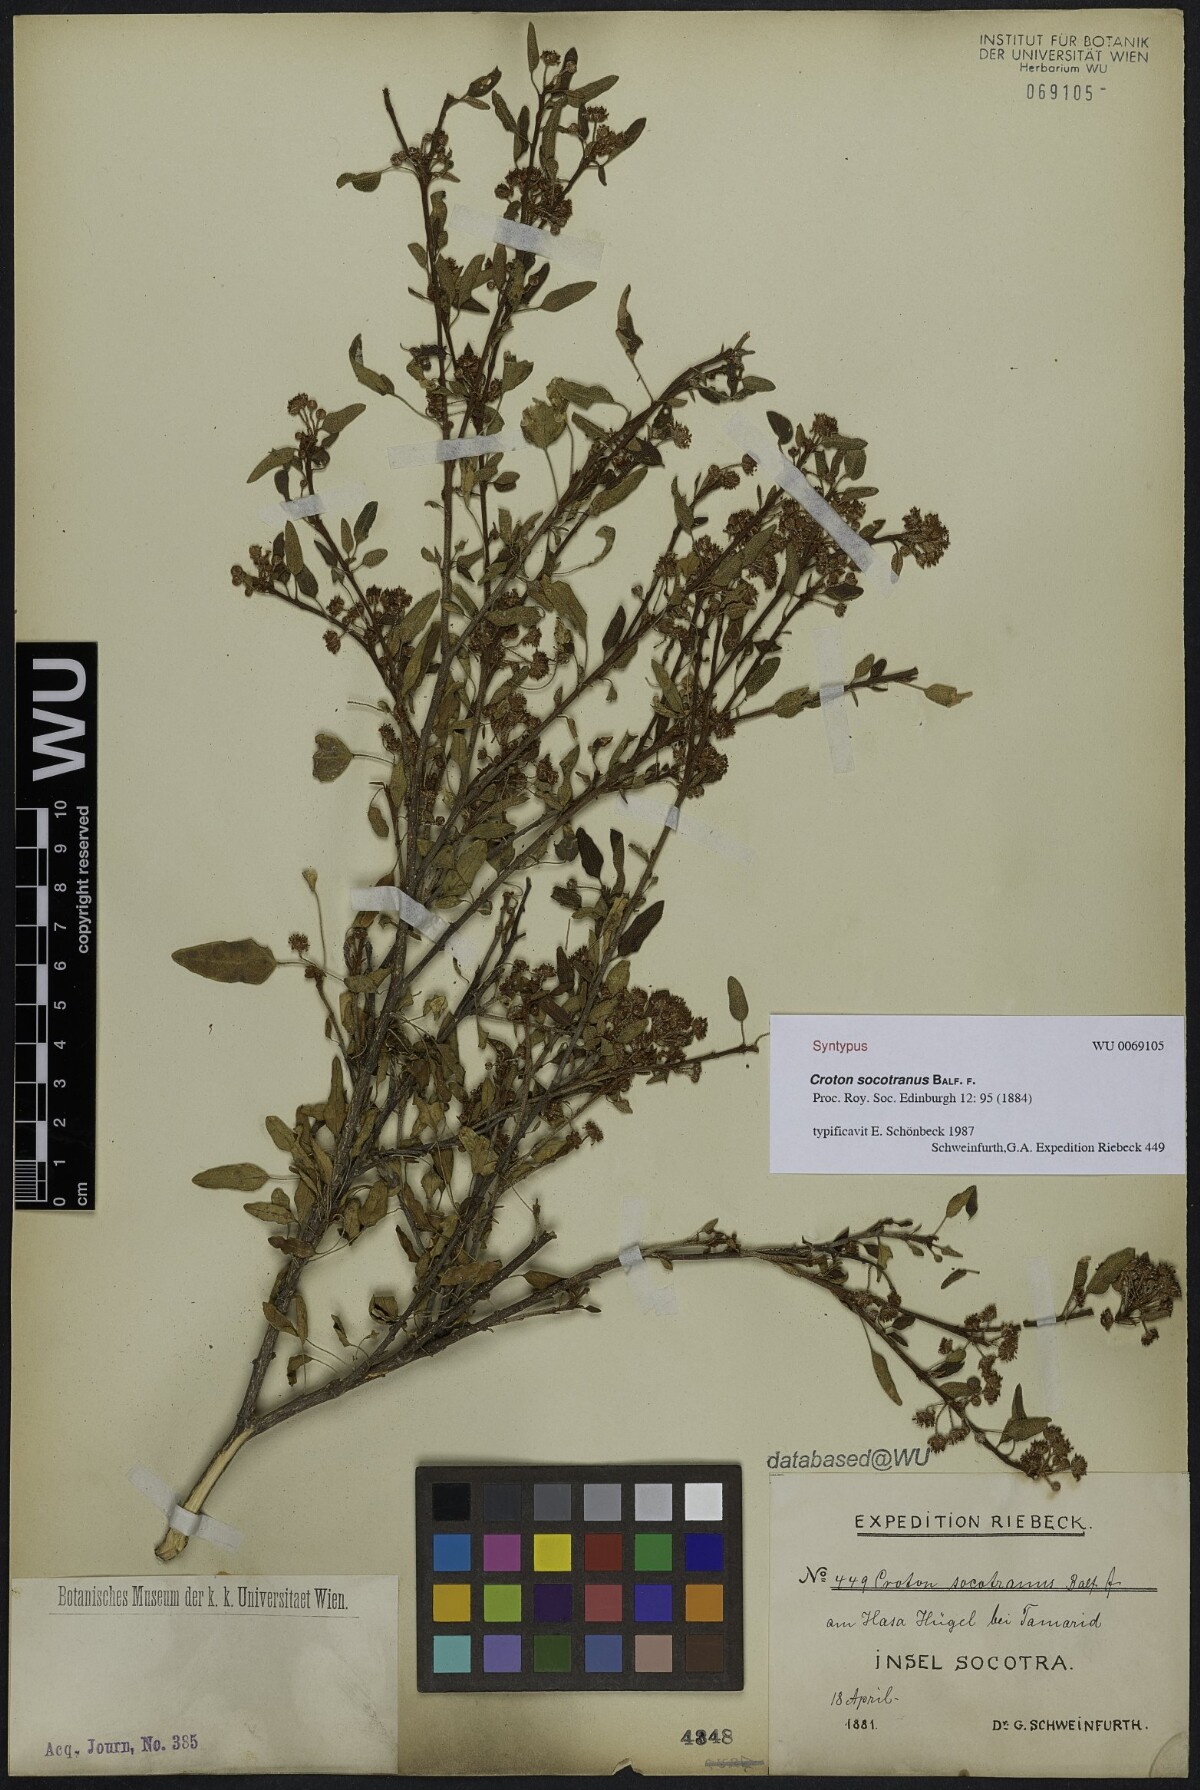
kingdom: Plantae
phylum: Tracheophyta
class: Magnoliopsida
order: Malpighiales
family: Euphorbiaceae
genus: Croton
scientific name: Croton socotranus
